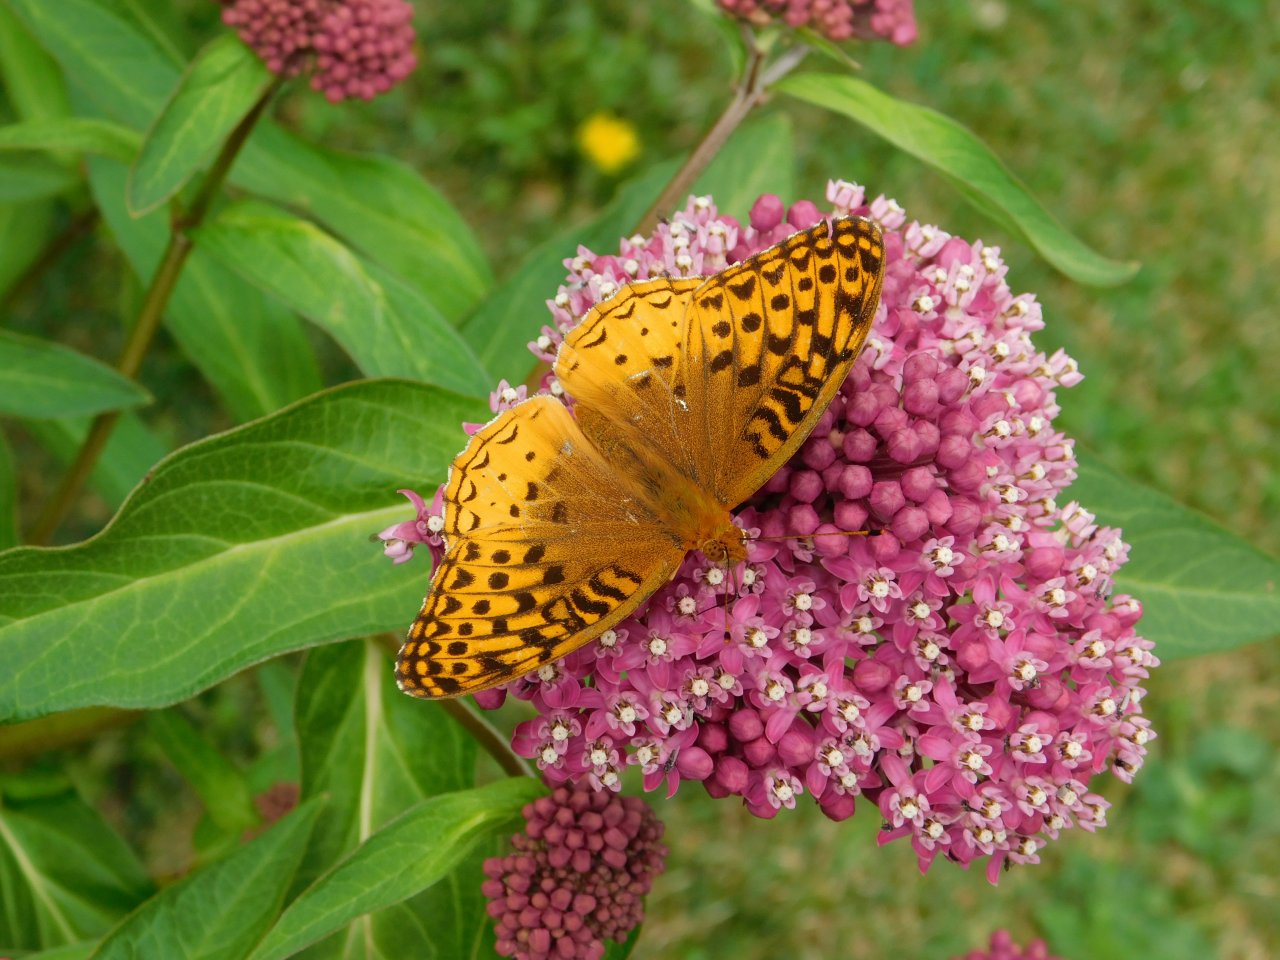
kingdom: Animalia
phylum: Arthropoda
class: Insecta
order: Lepidoptera
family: Nymphalidae
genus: Speyeria
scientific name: Speyeria cybele
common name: Great Spangled Fritillary
